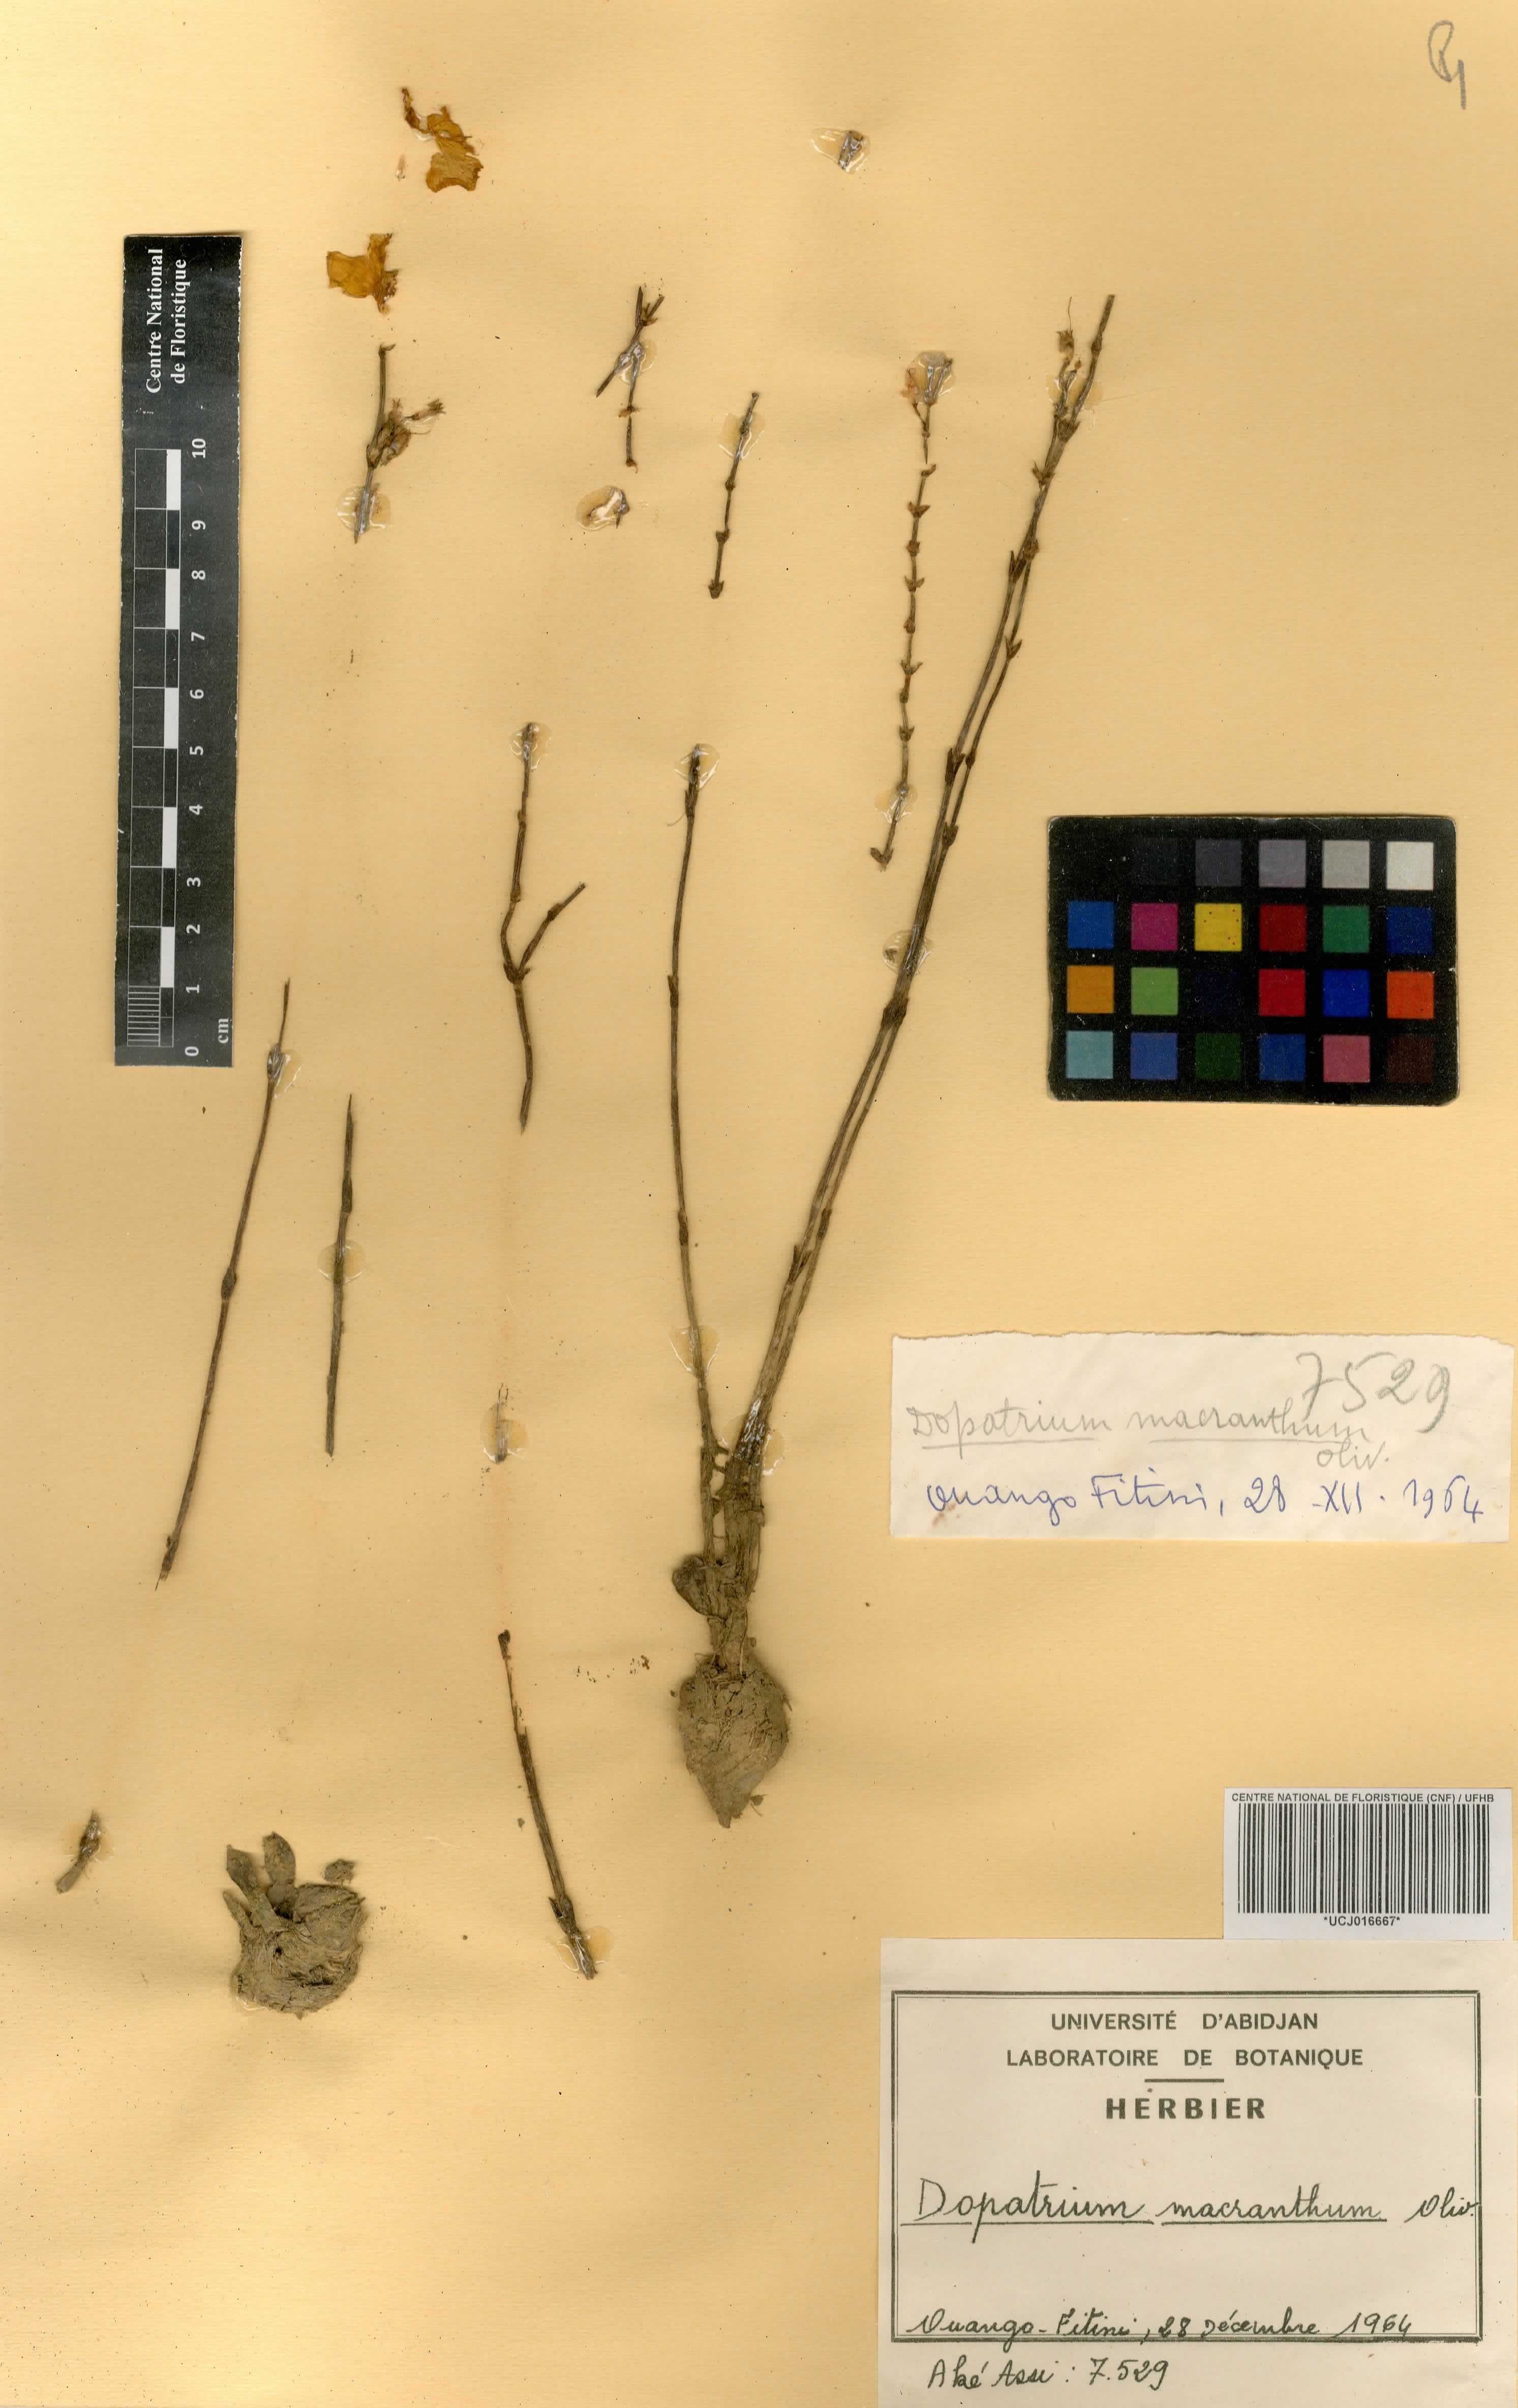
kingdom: Plantae
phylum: Tracheophyta
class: Magnoliopsida
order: Lamiales
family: Plantaginaceae
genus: Dopatrium
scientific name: Dopatrium macranthum
